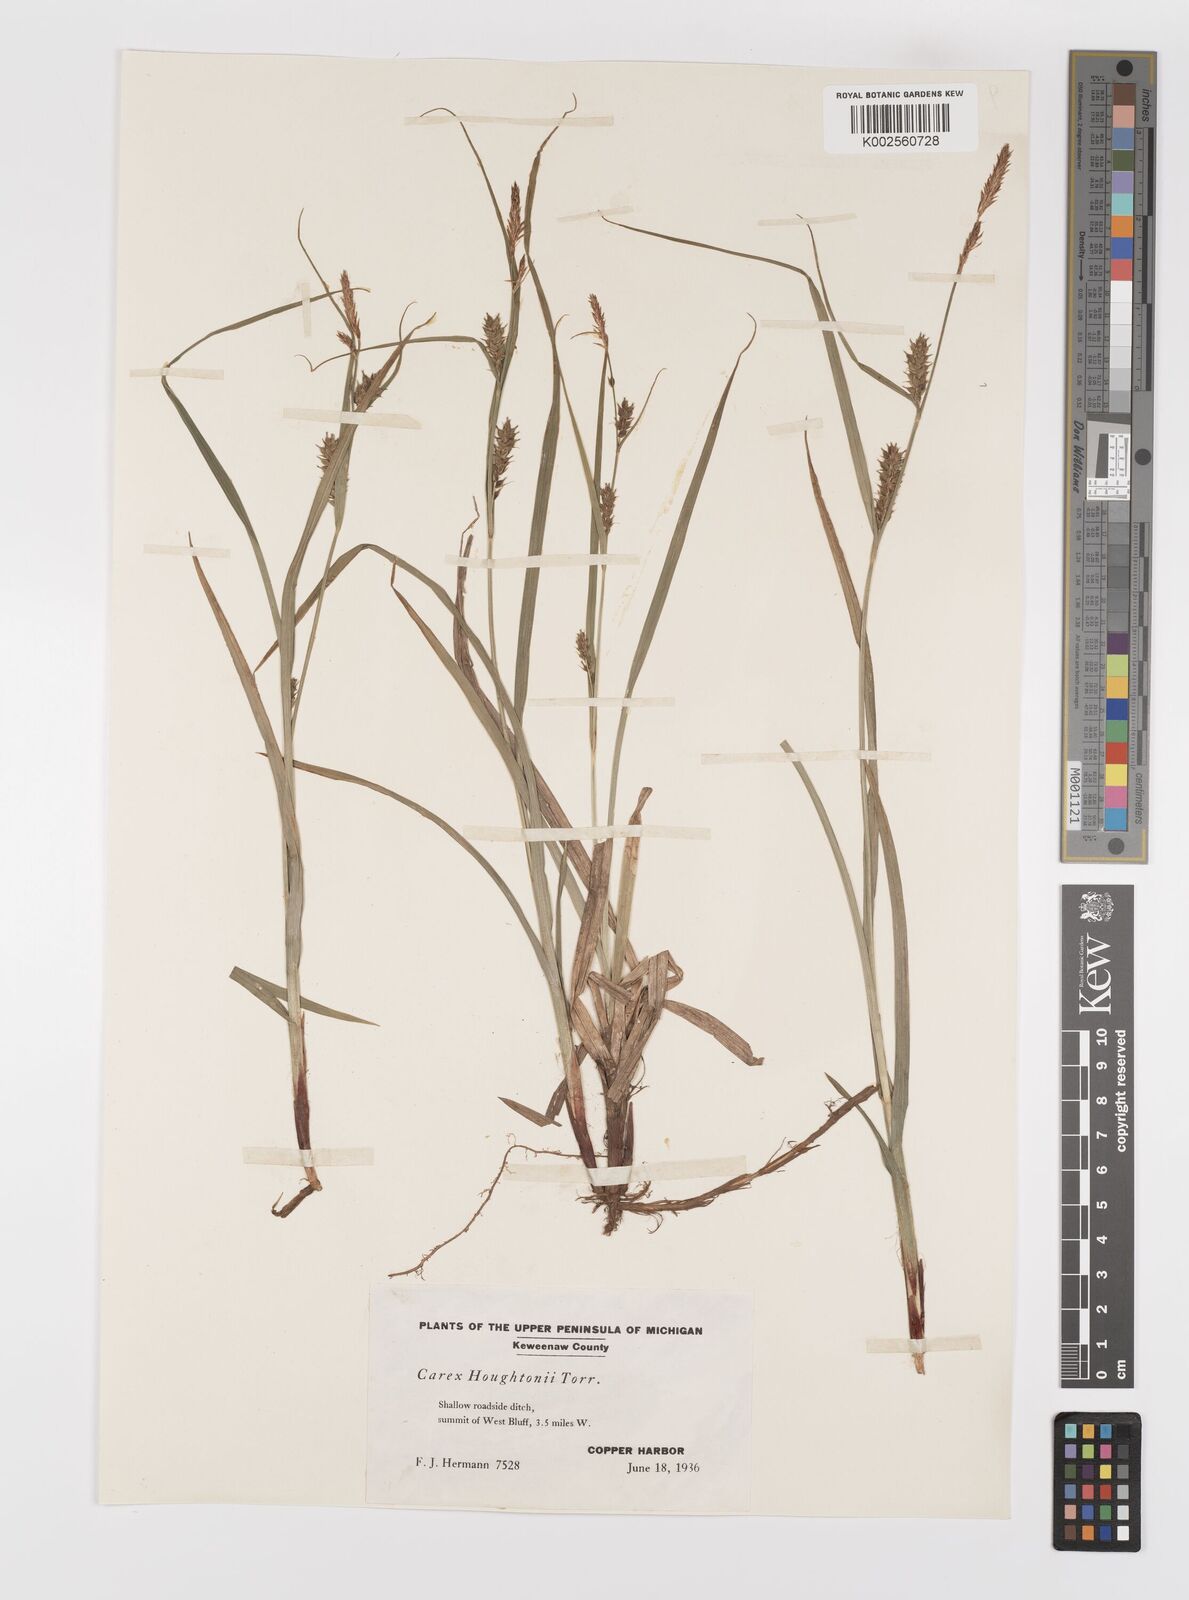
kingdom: Plantae
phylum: Tracheophyta
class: Liliopsida
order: Poales
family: Cyperaceae
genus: Carex
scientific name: Carex houghtoniana
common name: Houghton's sedge
